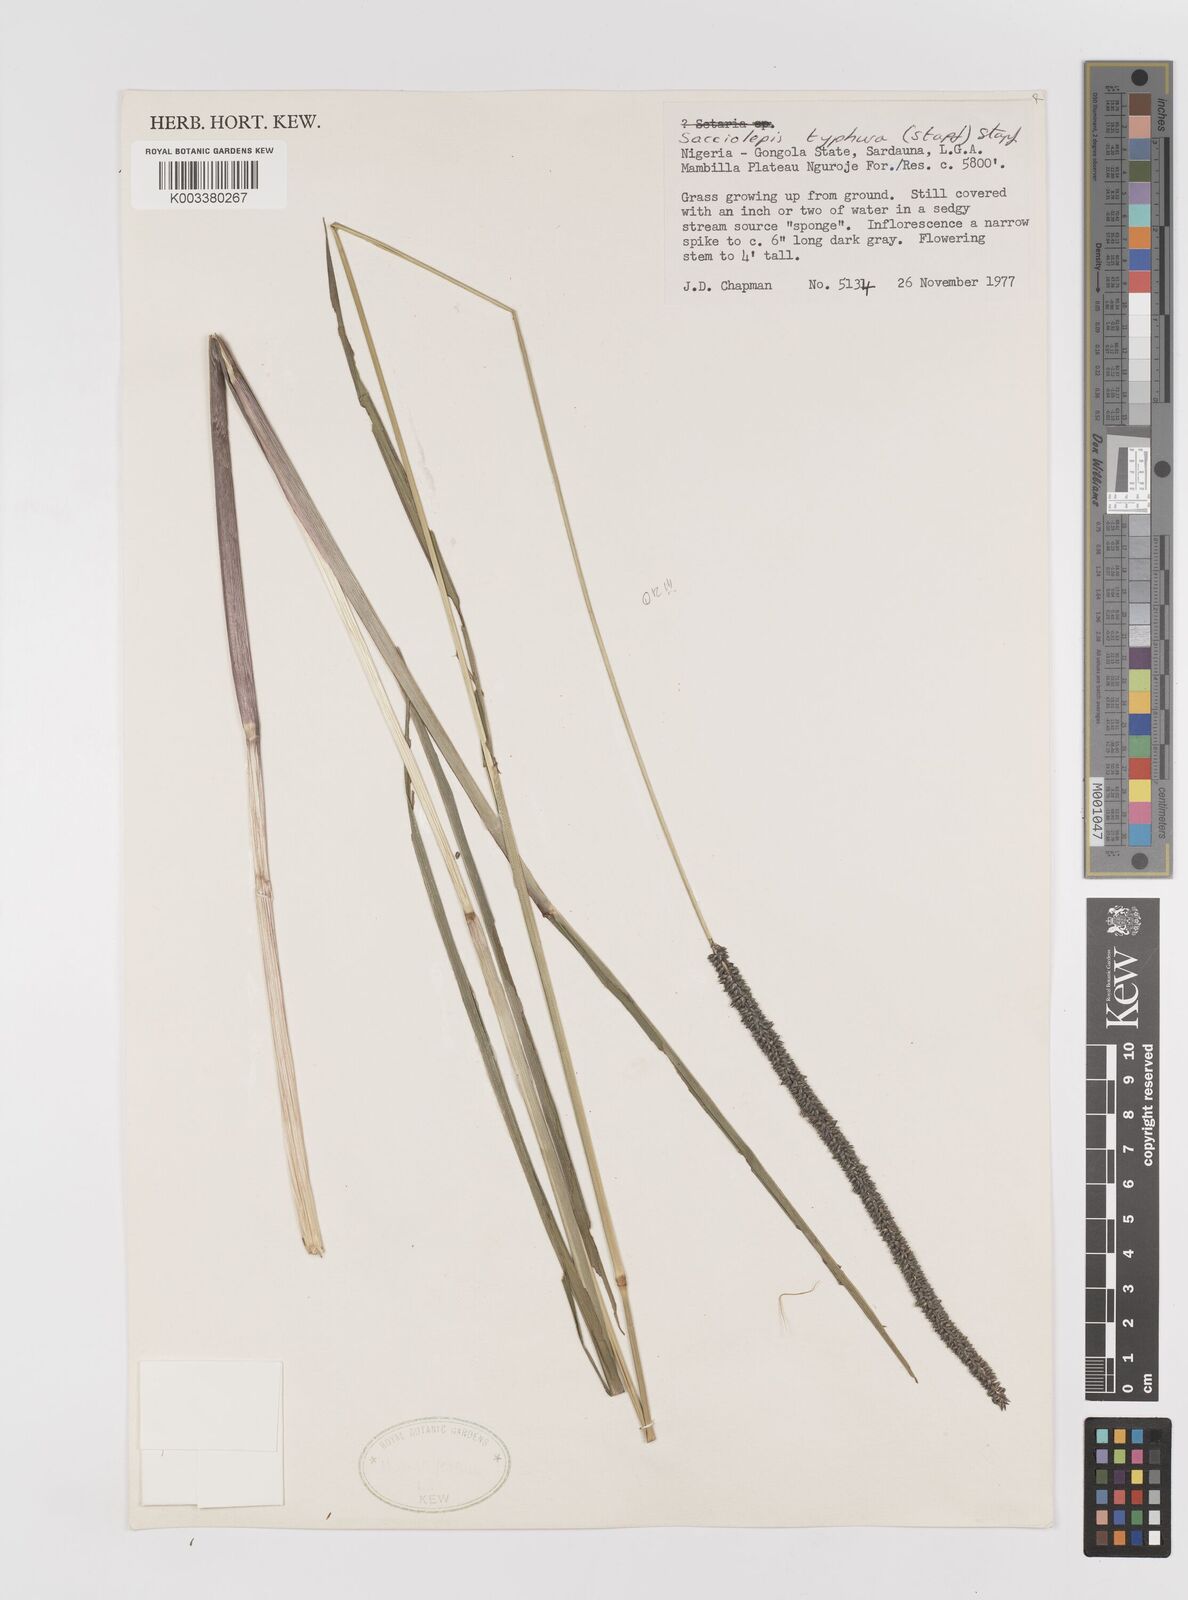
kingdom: Plantae
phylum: Tracheophyta
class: Liliopsida
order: Poales
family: Poaceae
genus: Sacciolepis
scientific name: Sacciolepis typhura
